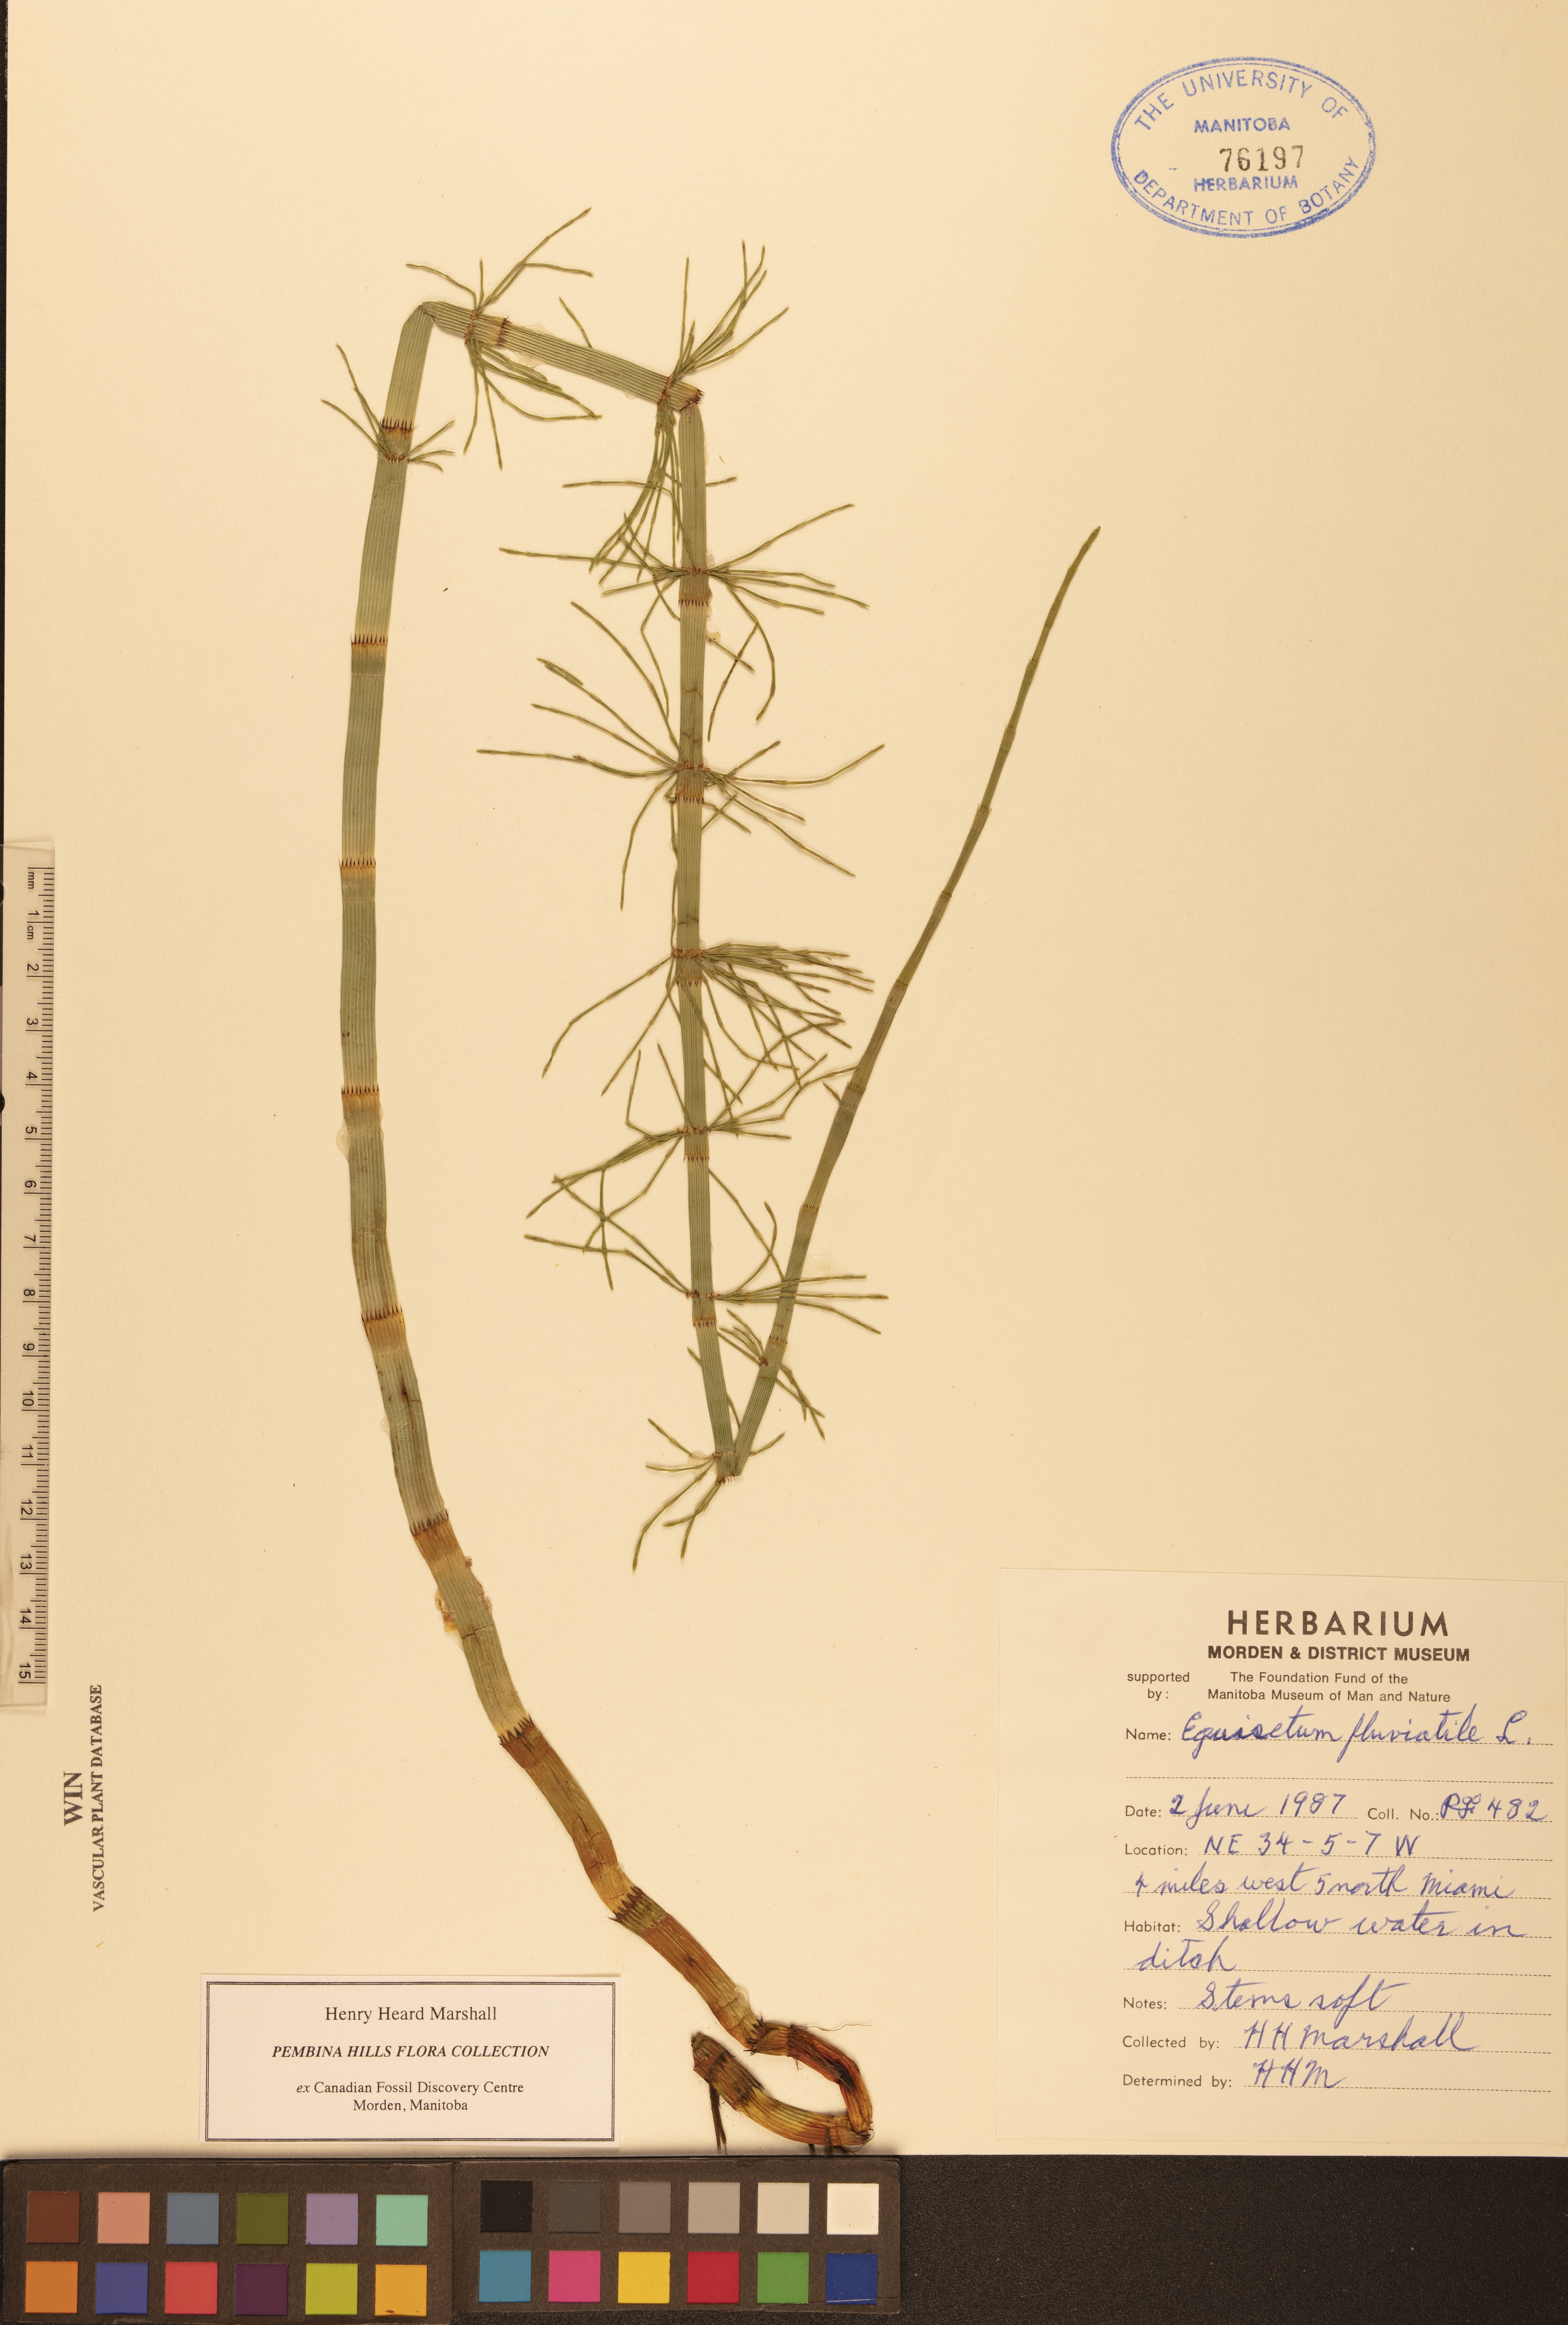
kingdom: Plantae
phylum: Tracheophyta
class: Polypodiopsida
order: Equisetales
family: Equisetaceae
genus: Equisetum
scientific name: Equisetum fluviatile
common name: Water horsetail
